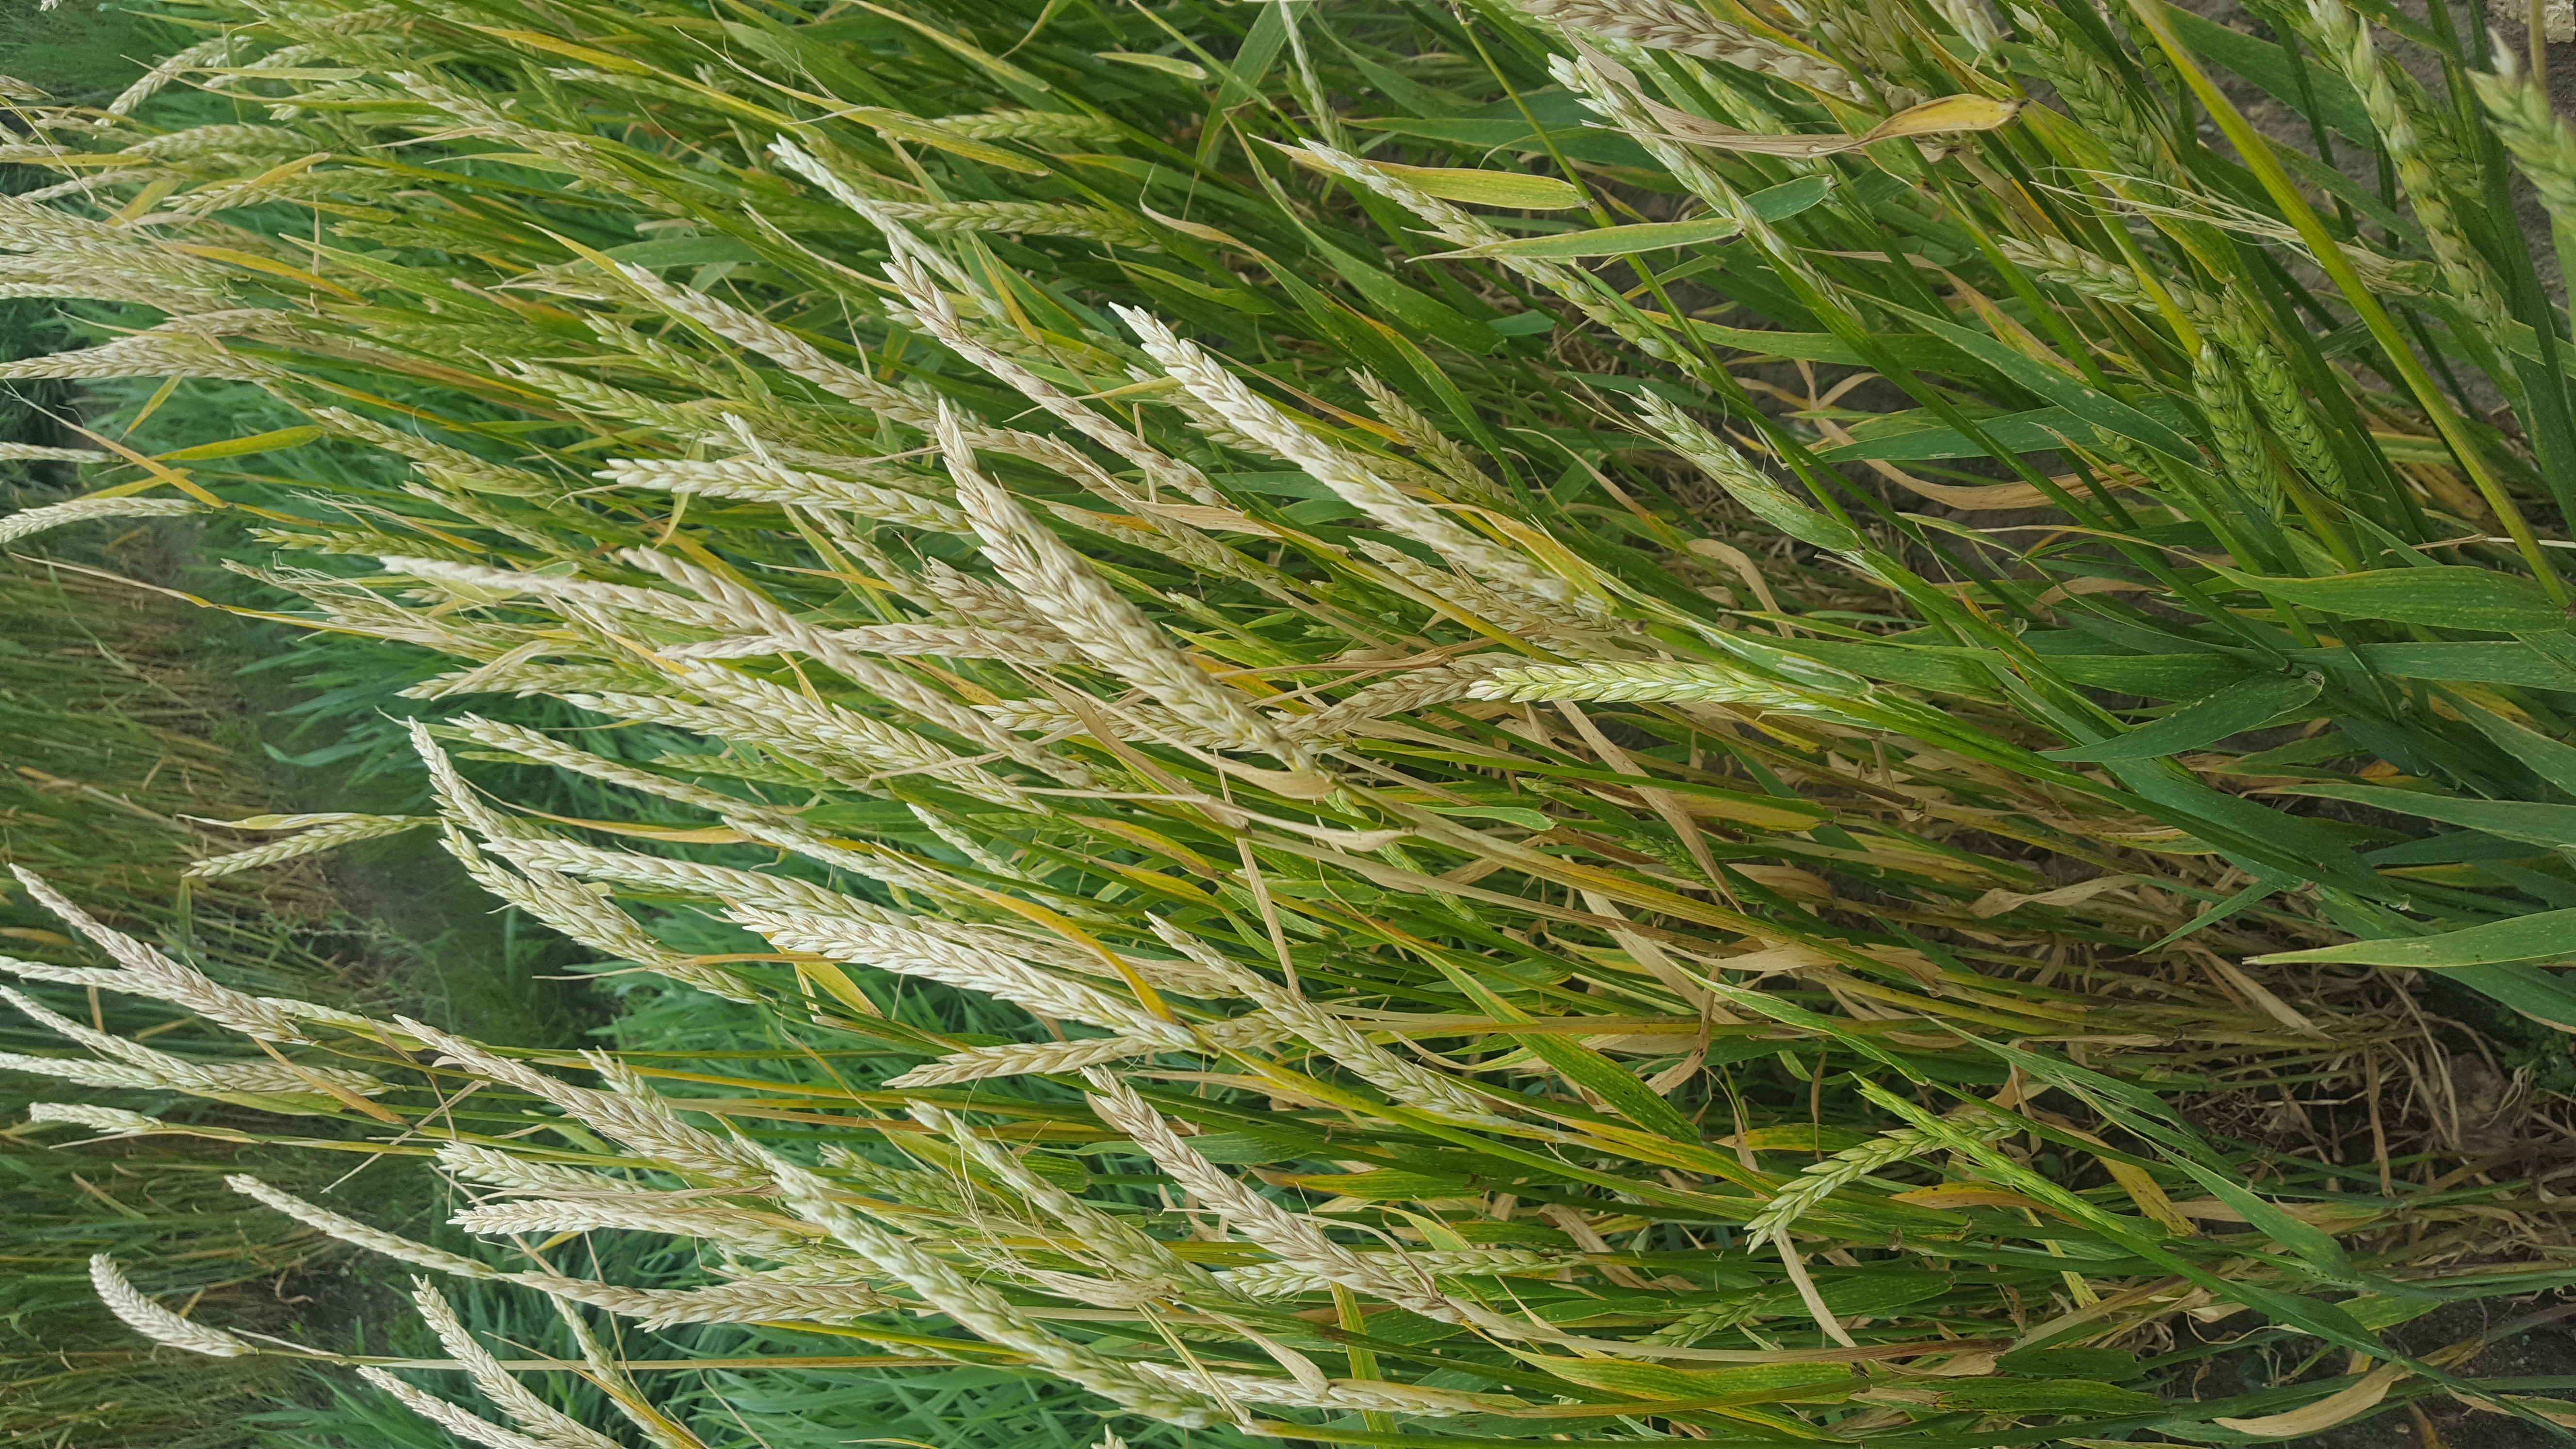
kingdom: Plantae
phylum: Tracheophyta
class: Liliopsida
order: Poales
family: Poaceae
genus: Hordeum
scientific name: Hordeum vulgare
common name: Common barley
